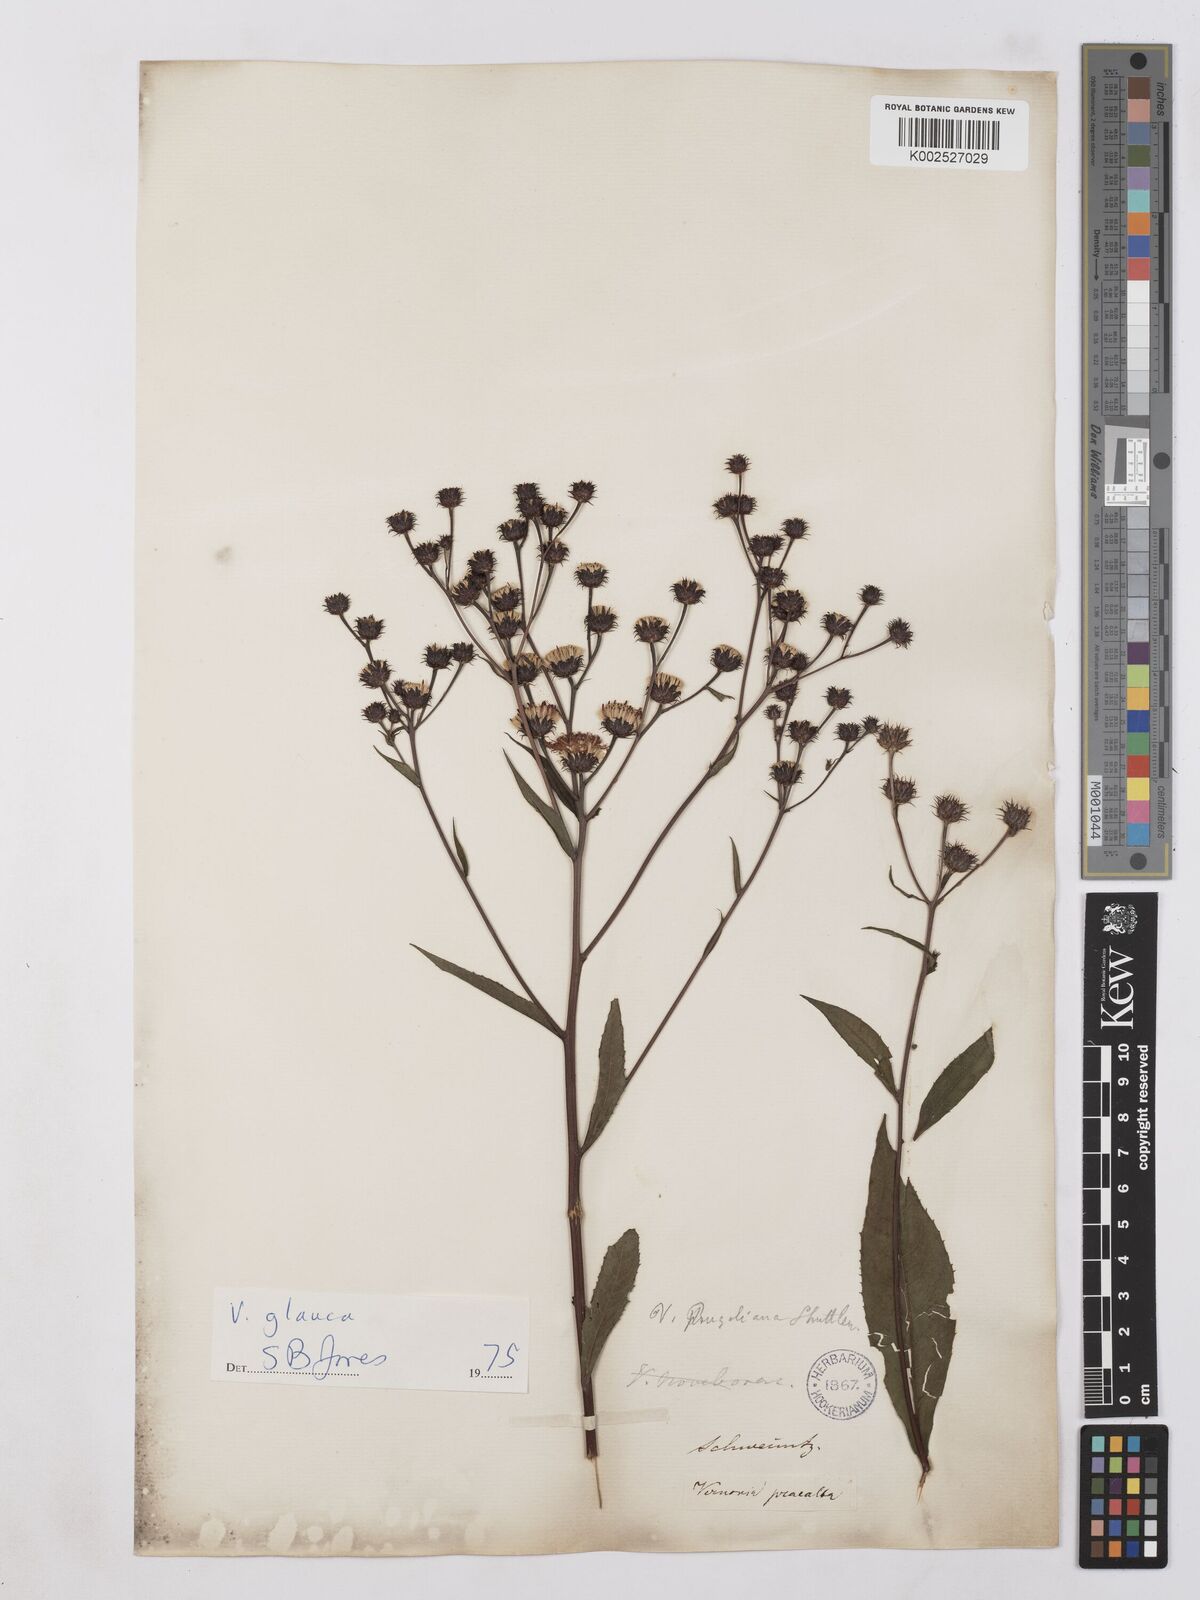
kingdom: Plantae
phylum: Tracheophyta
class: Magnoliopsida
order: Asterales
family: Asteraceae
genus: Vernonia
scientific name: Vernonia glauca
